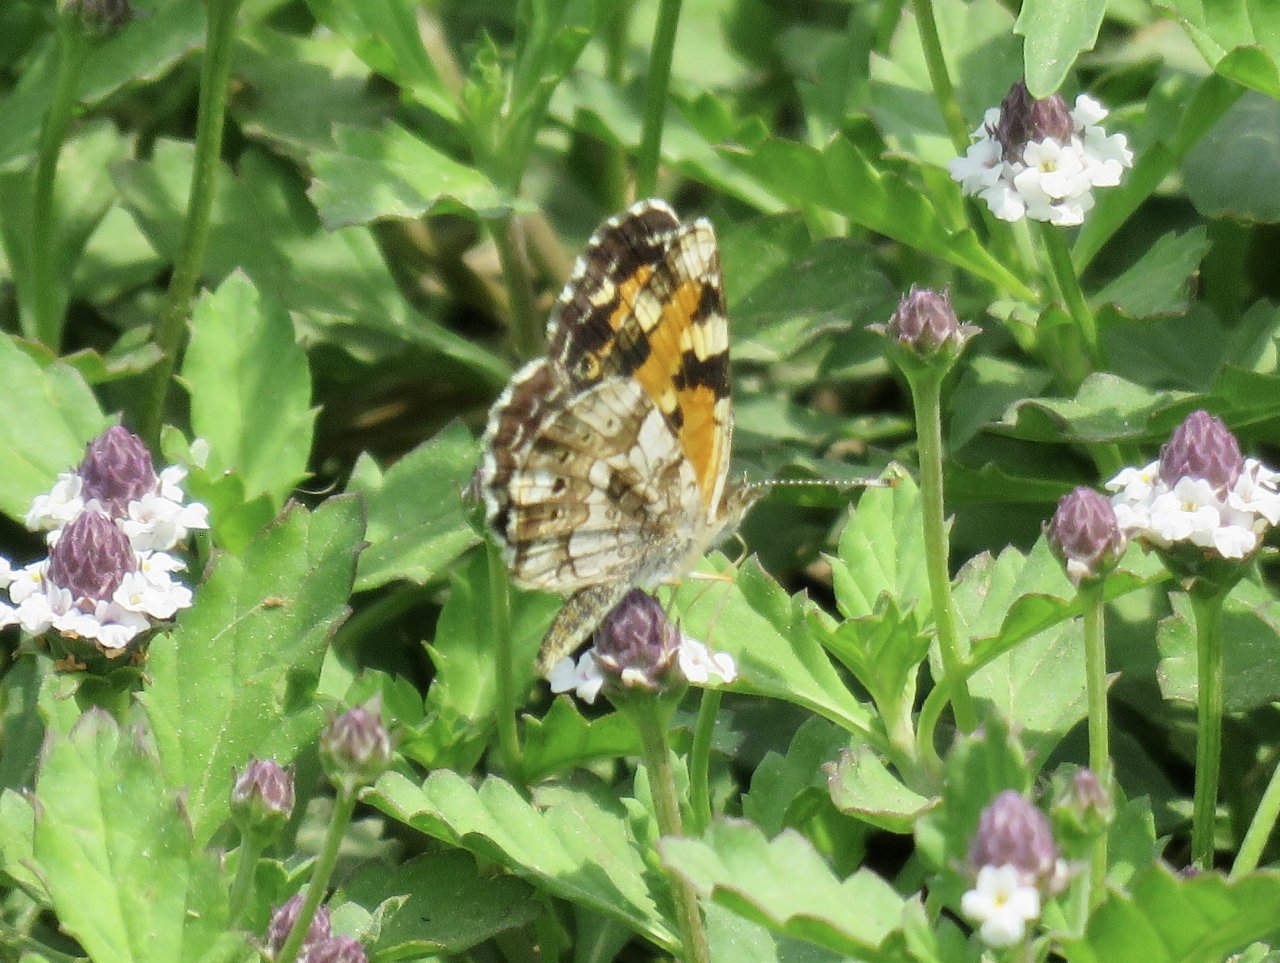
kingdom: Animalia
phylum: Arthropoda
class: Insecta
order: Lepidoptera
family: Nymphalidae
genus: Phyciodes
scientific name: Phyciodes phaon
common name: Phaon Crescent
